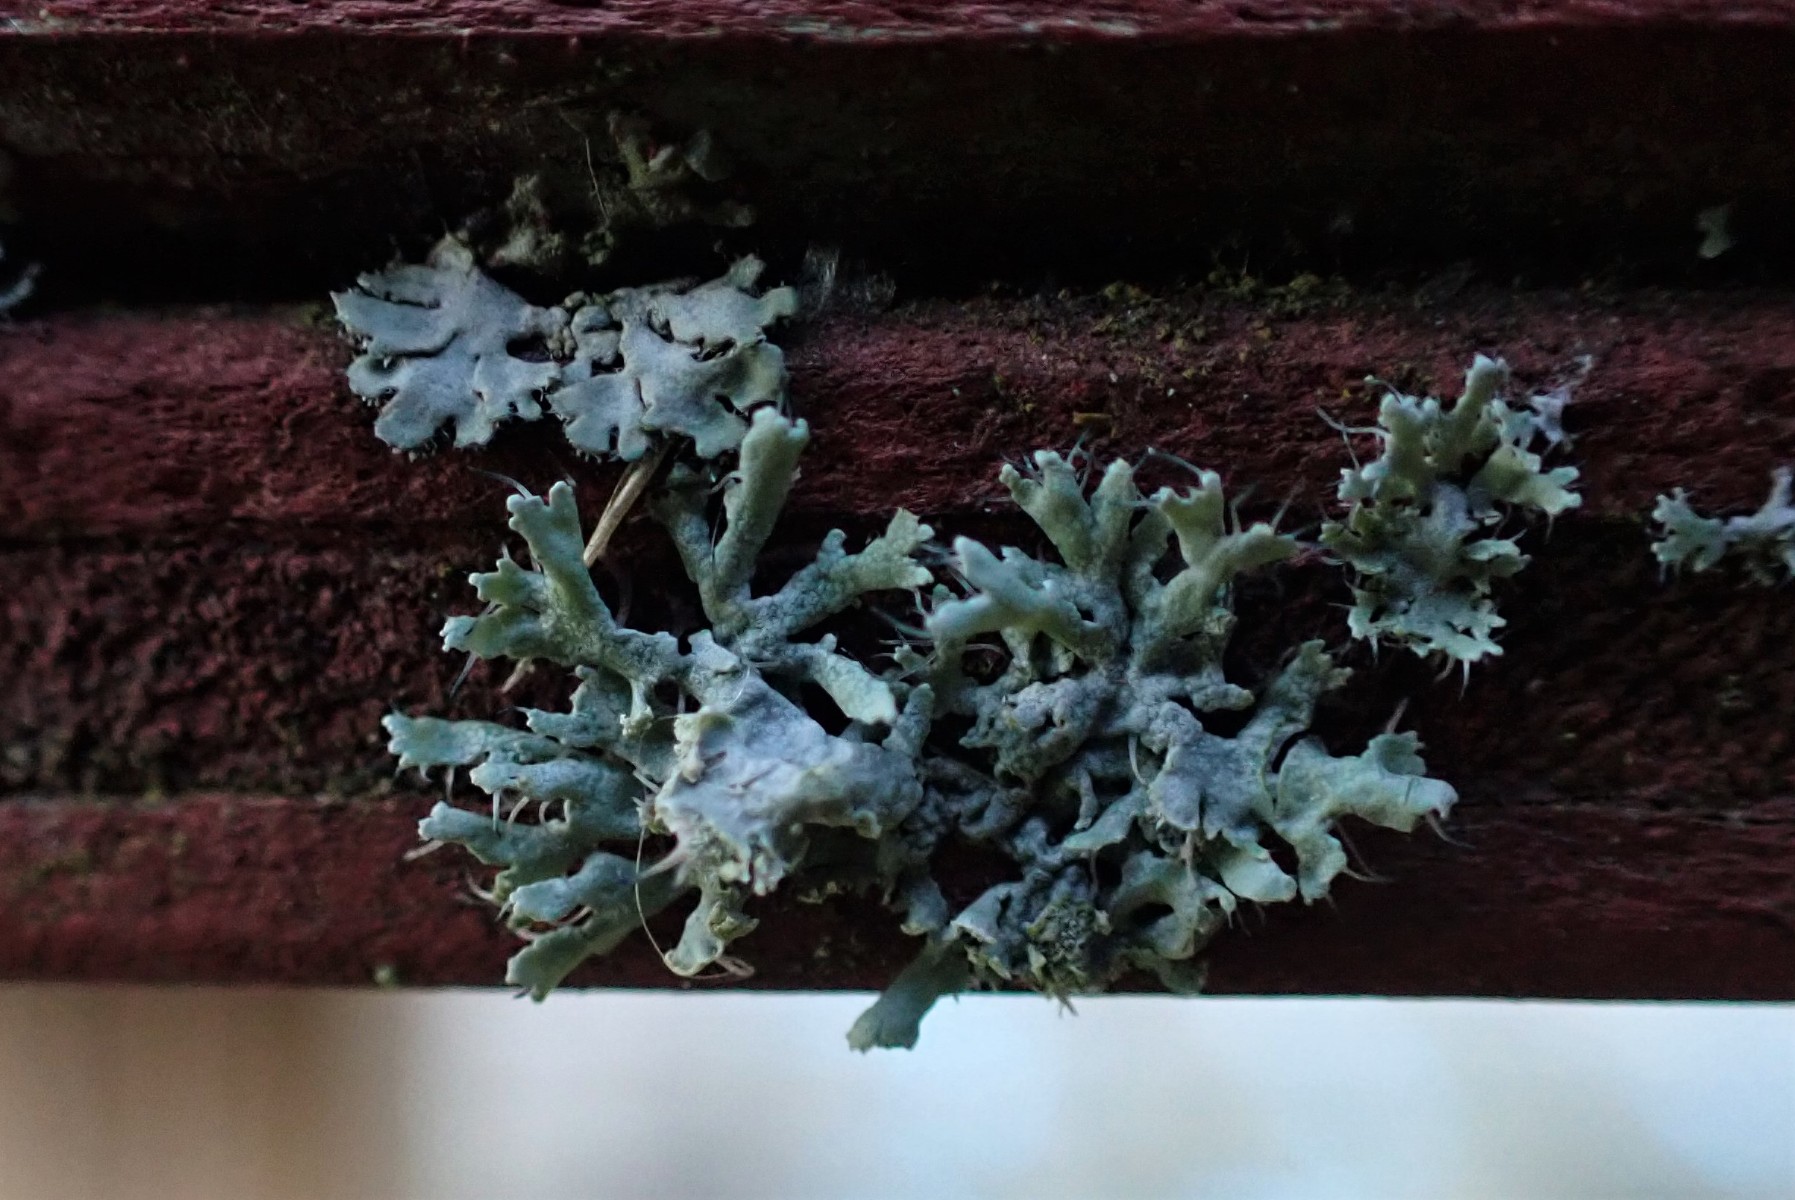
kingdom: Fungi
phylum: Ascomycota
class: Lecanoromycetes
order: Caliciales
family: Physciaceae
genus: Physcia
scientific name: Physcia tenella
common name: spæd rosetlav
